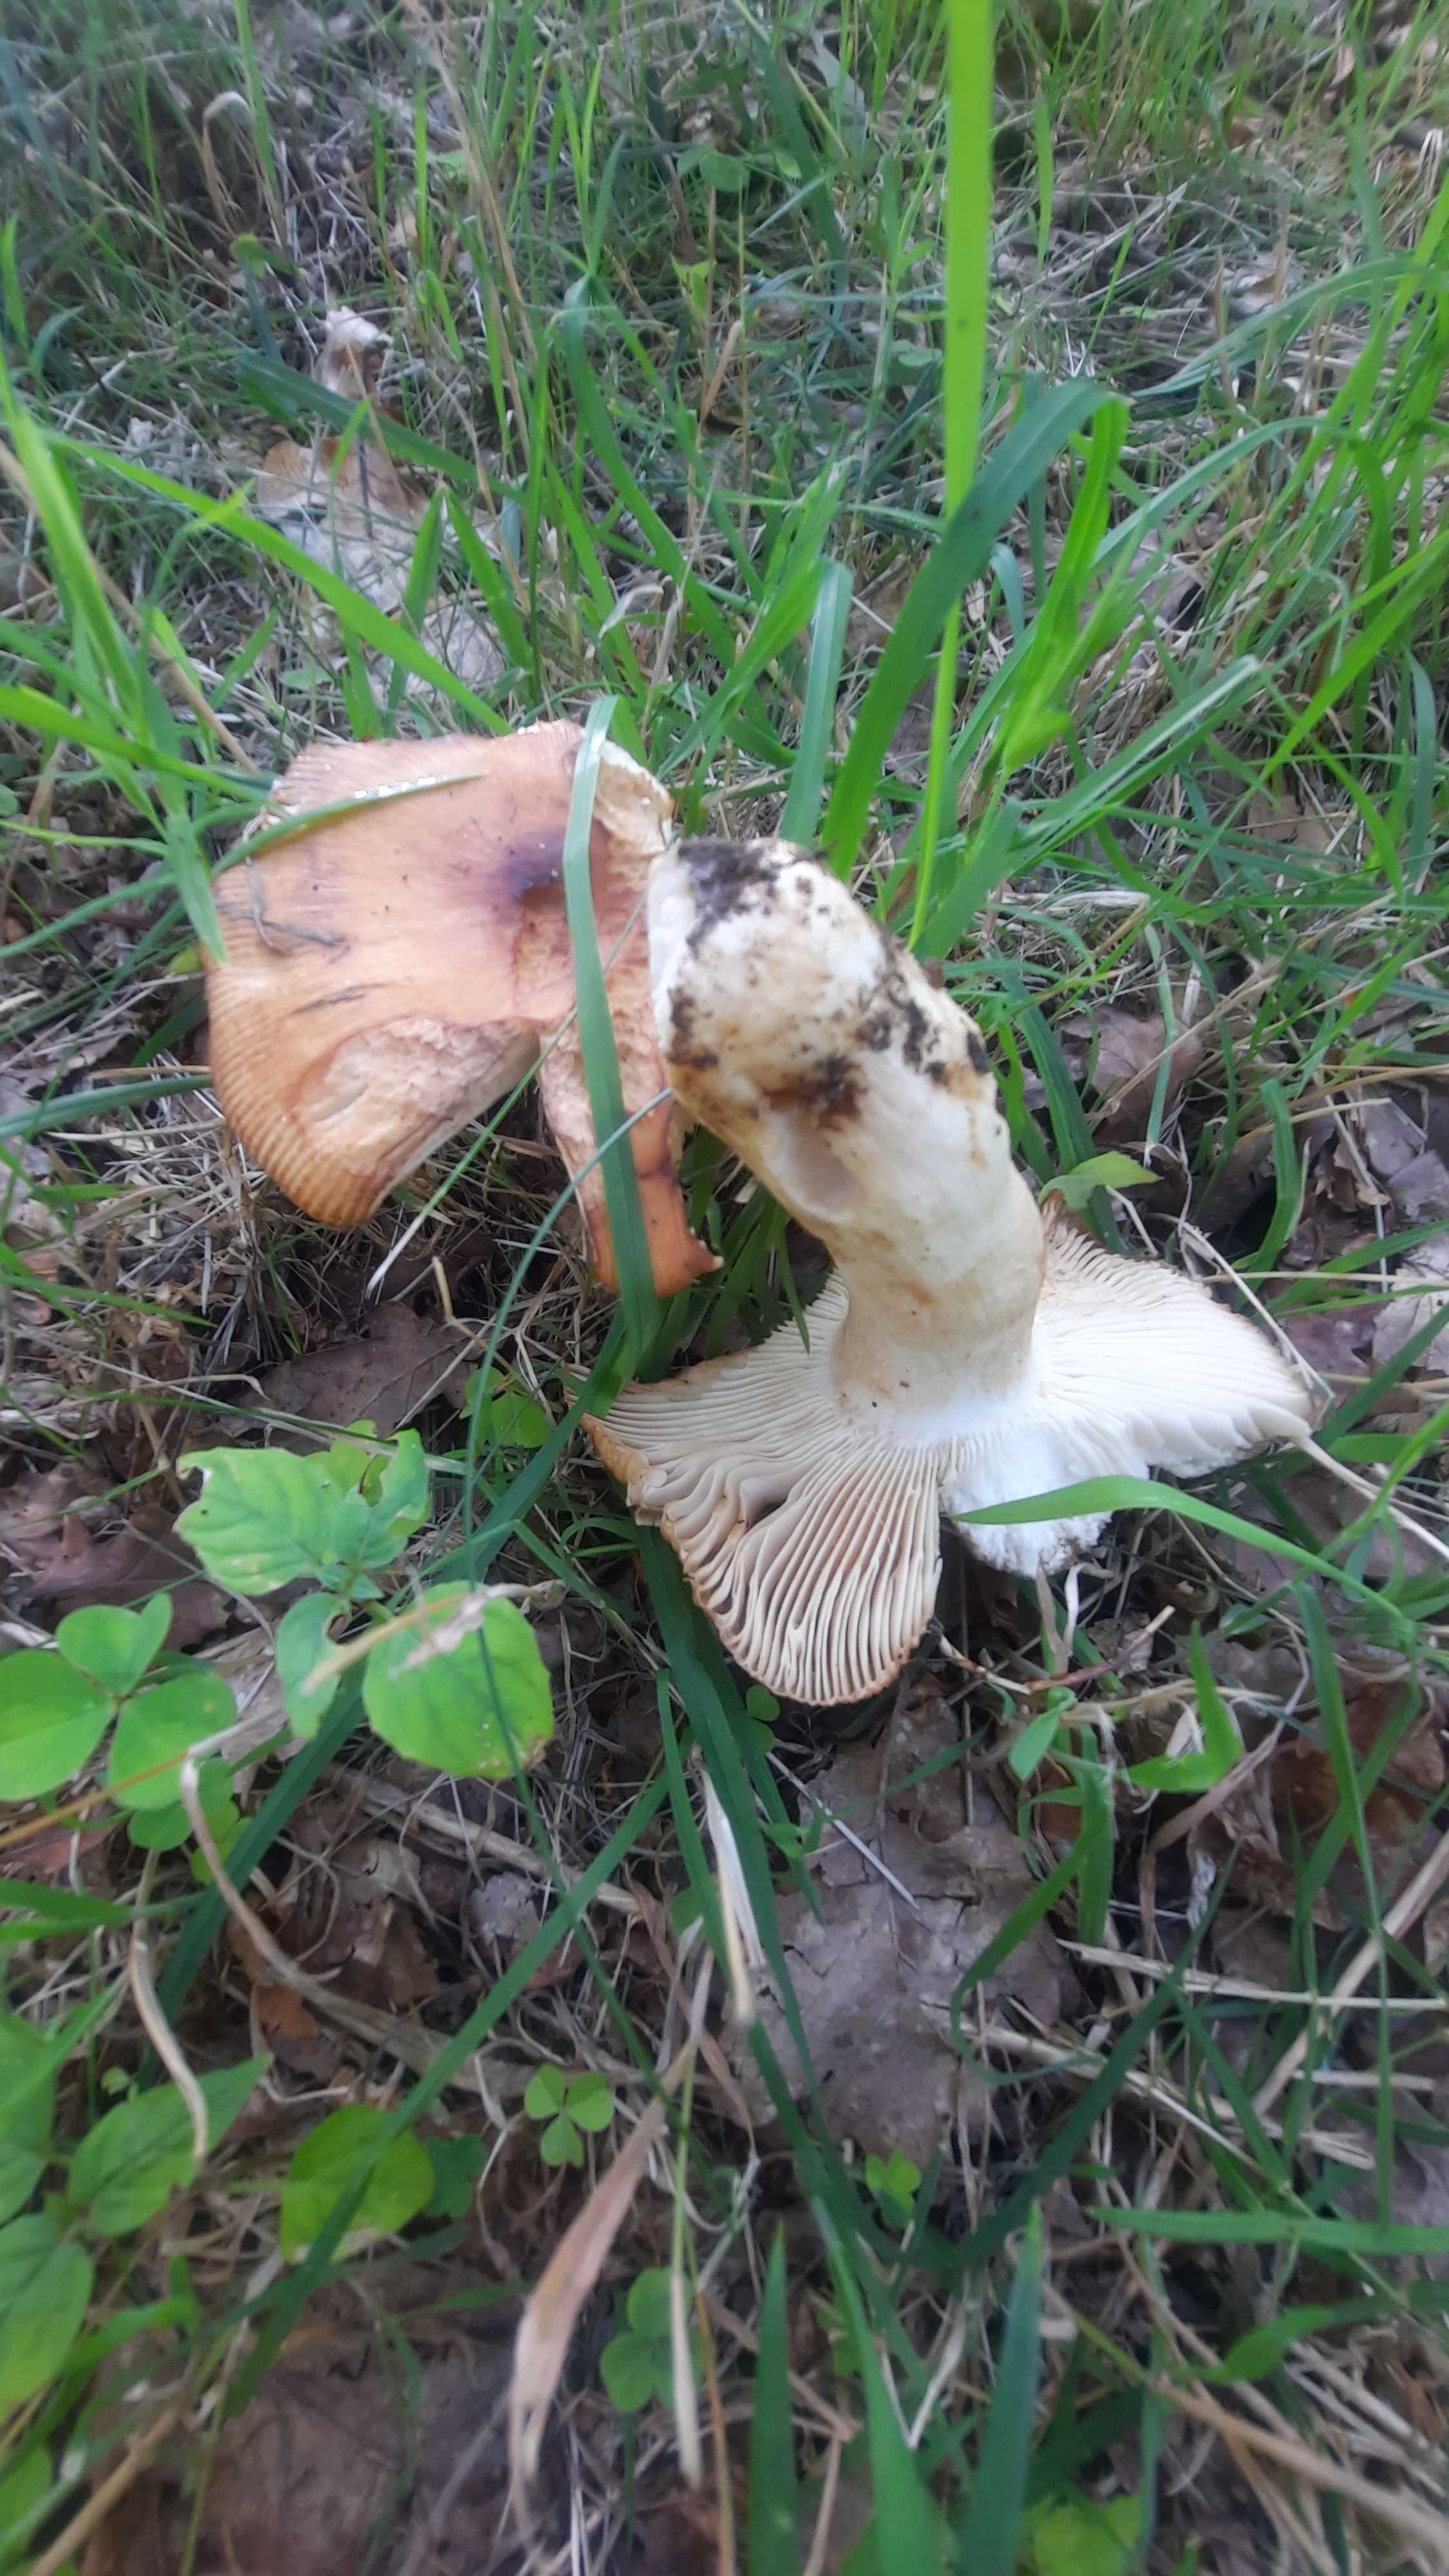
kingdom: Fungi
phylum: Basidiomycota
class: Agaricomycetes
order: Russulales
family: Russulaceae
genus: Russula
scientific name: Russula
